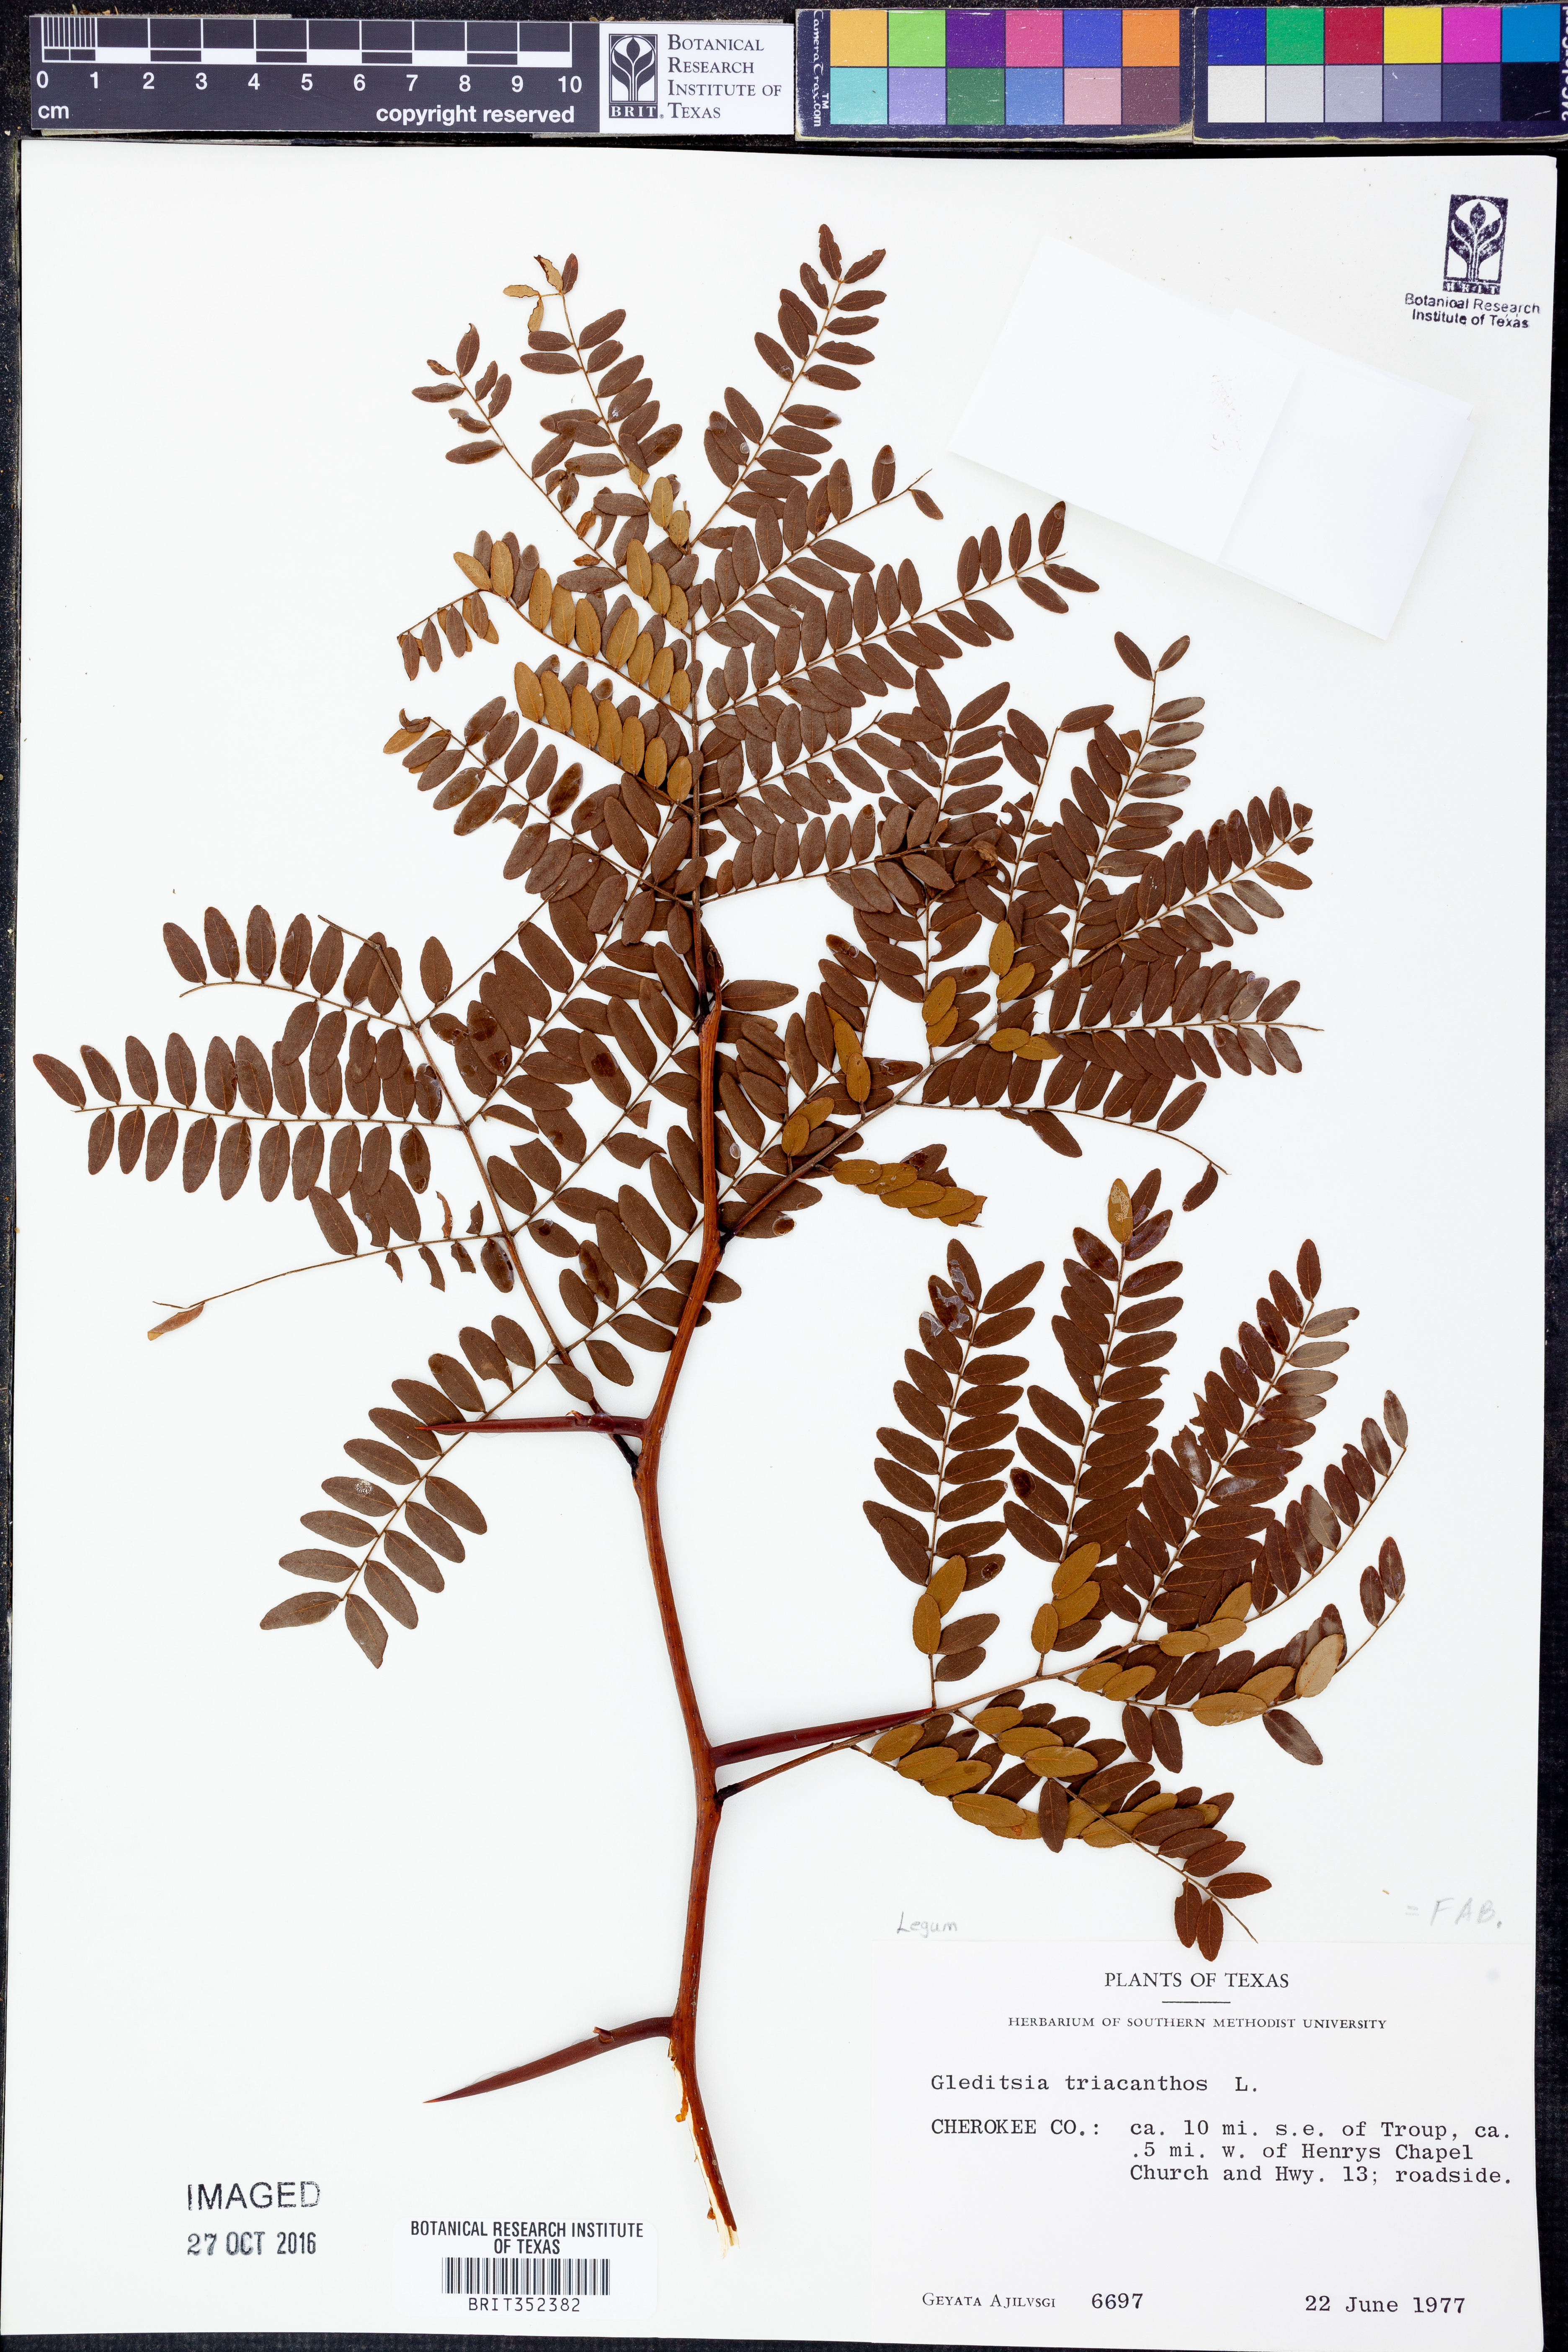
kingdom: Plantae
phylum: Tracheophyta
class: Magnoliopsida
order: Fabales
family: Fabaceae
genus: Gleditsia
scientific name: Gleditsia triacanthos
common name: Common honeylocust
